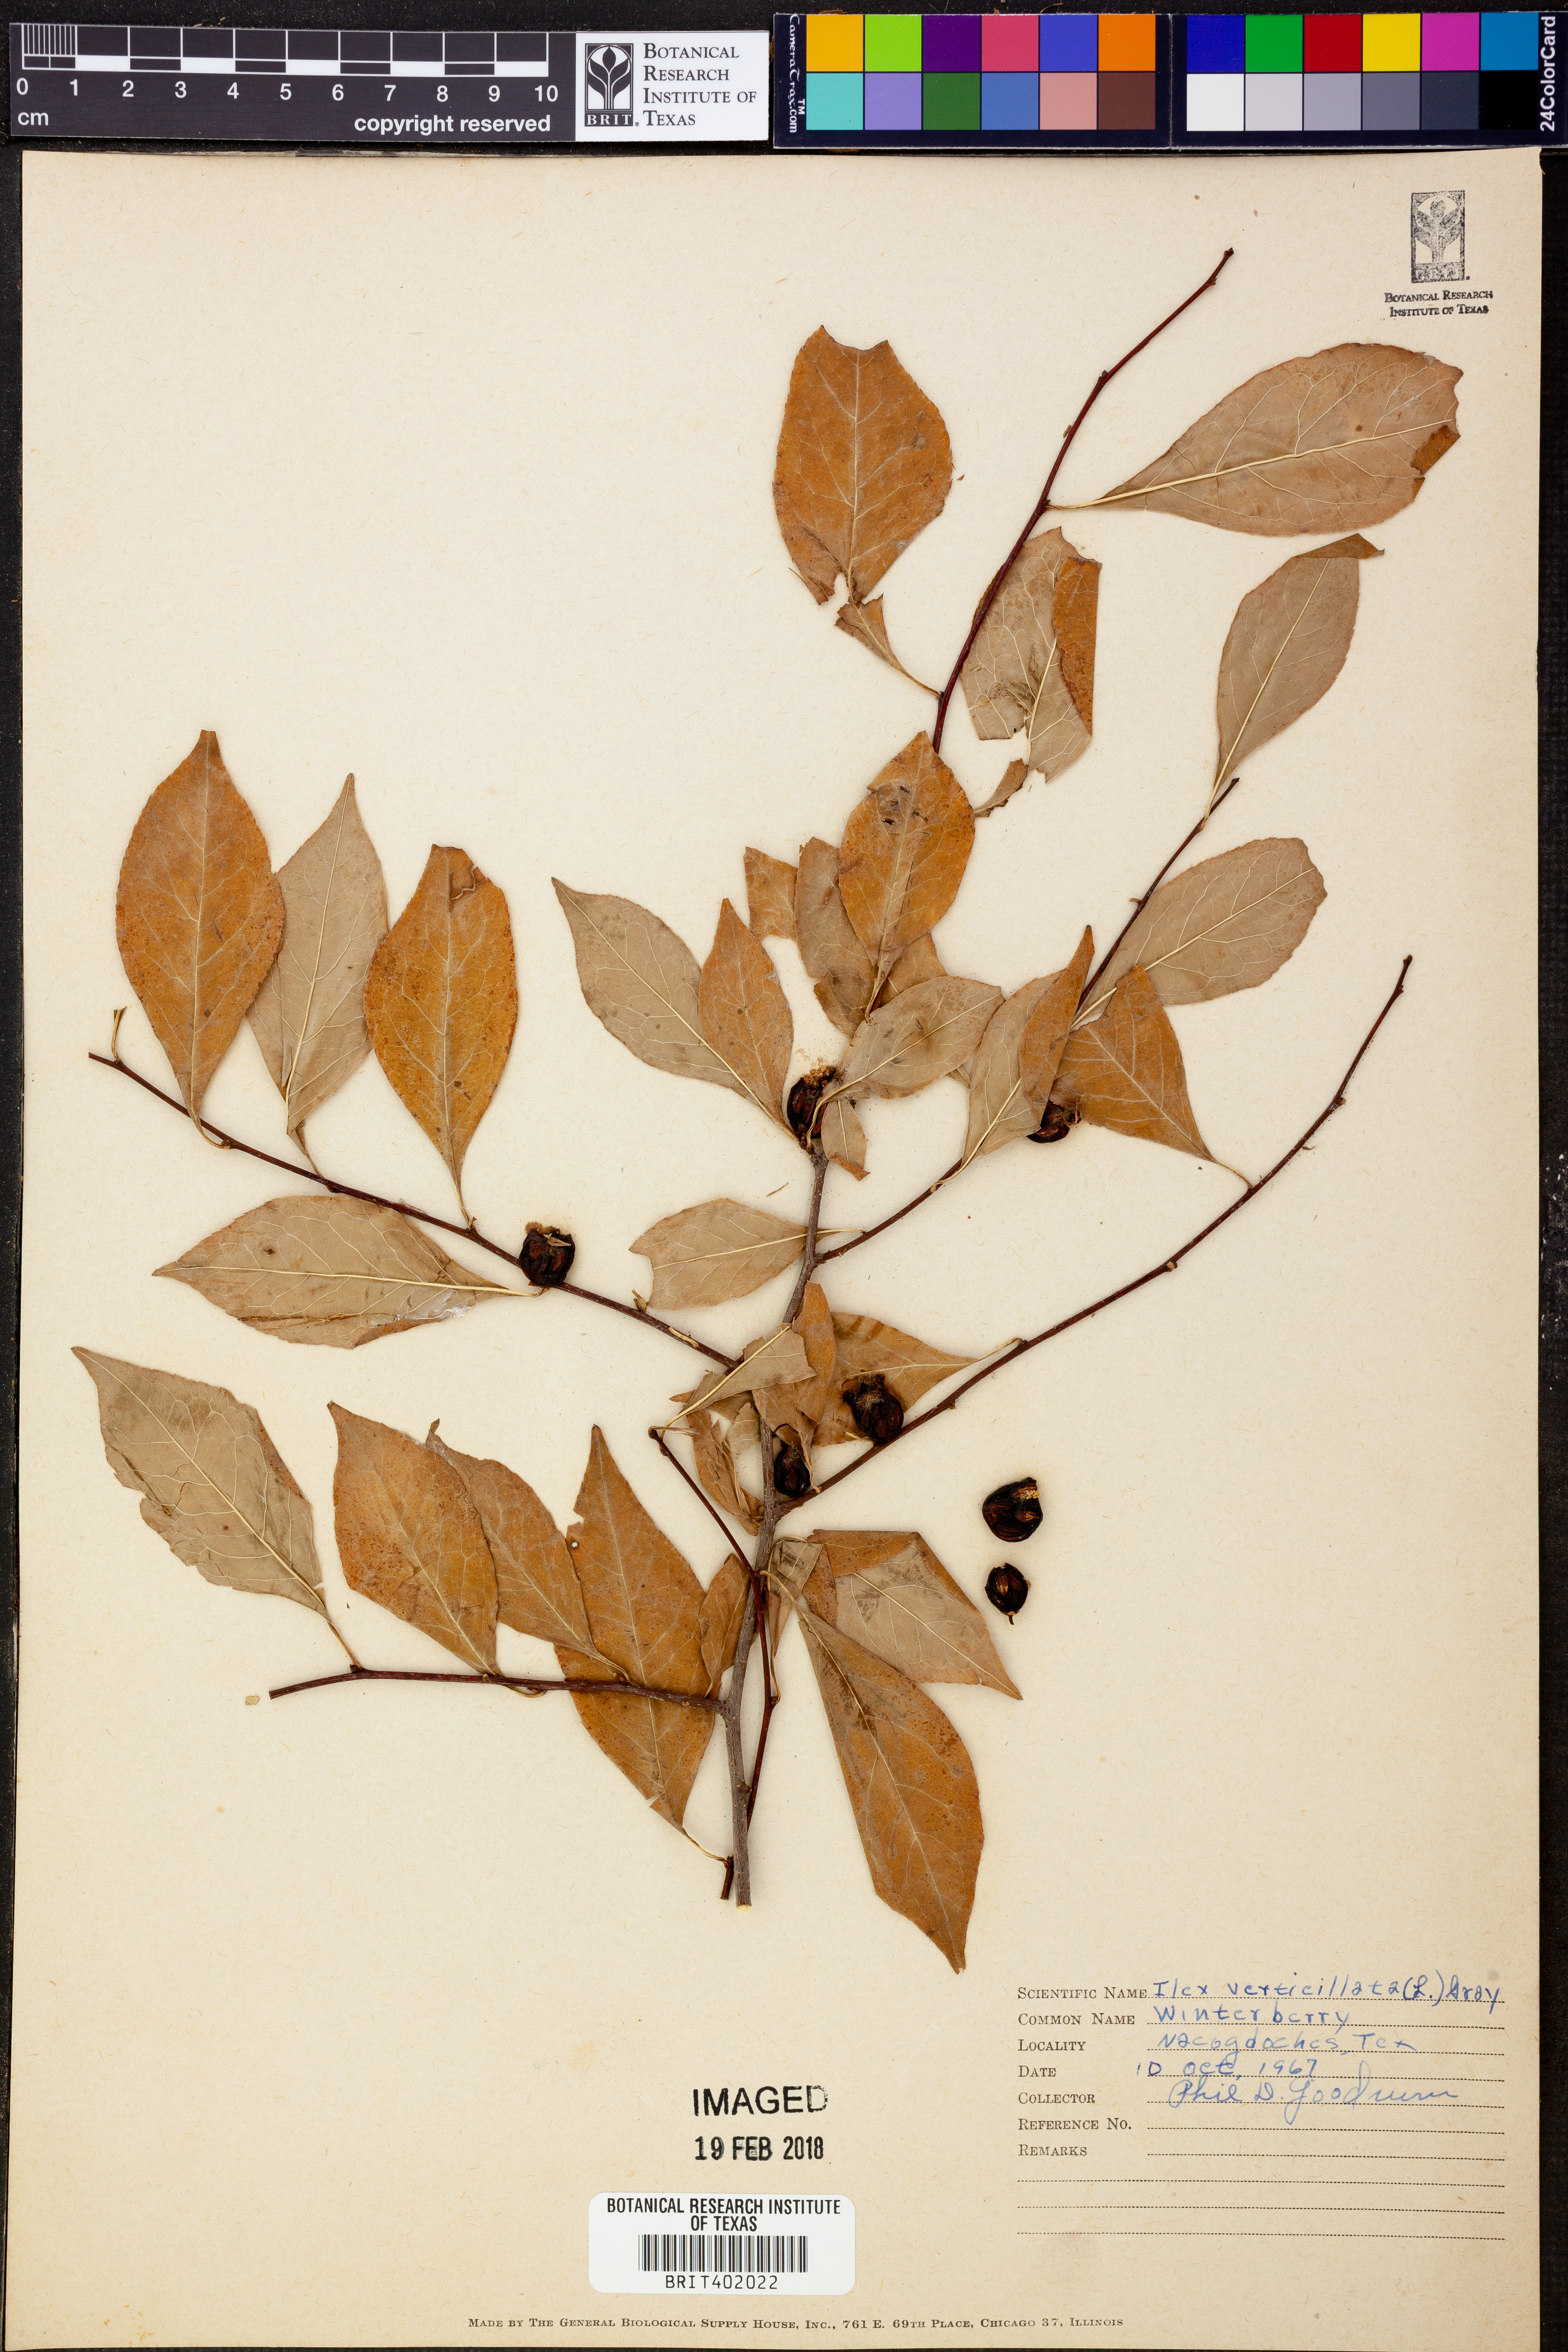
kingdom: Plantae
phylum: Tracheophyta
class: Magnoliopsida
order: Aquifoliales
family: Aquifoliaceae
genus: Ilex
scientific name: Ilex verticillata
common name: Virginia winterberry
